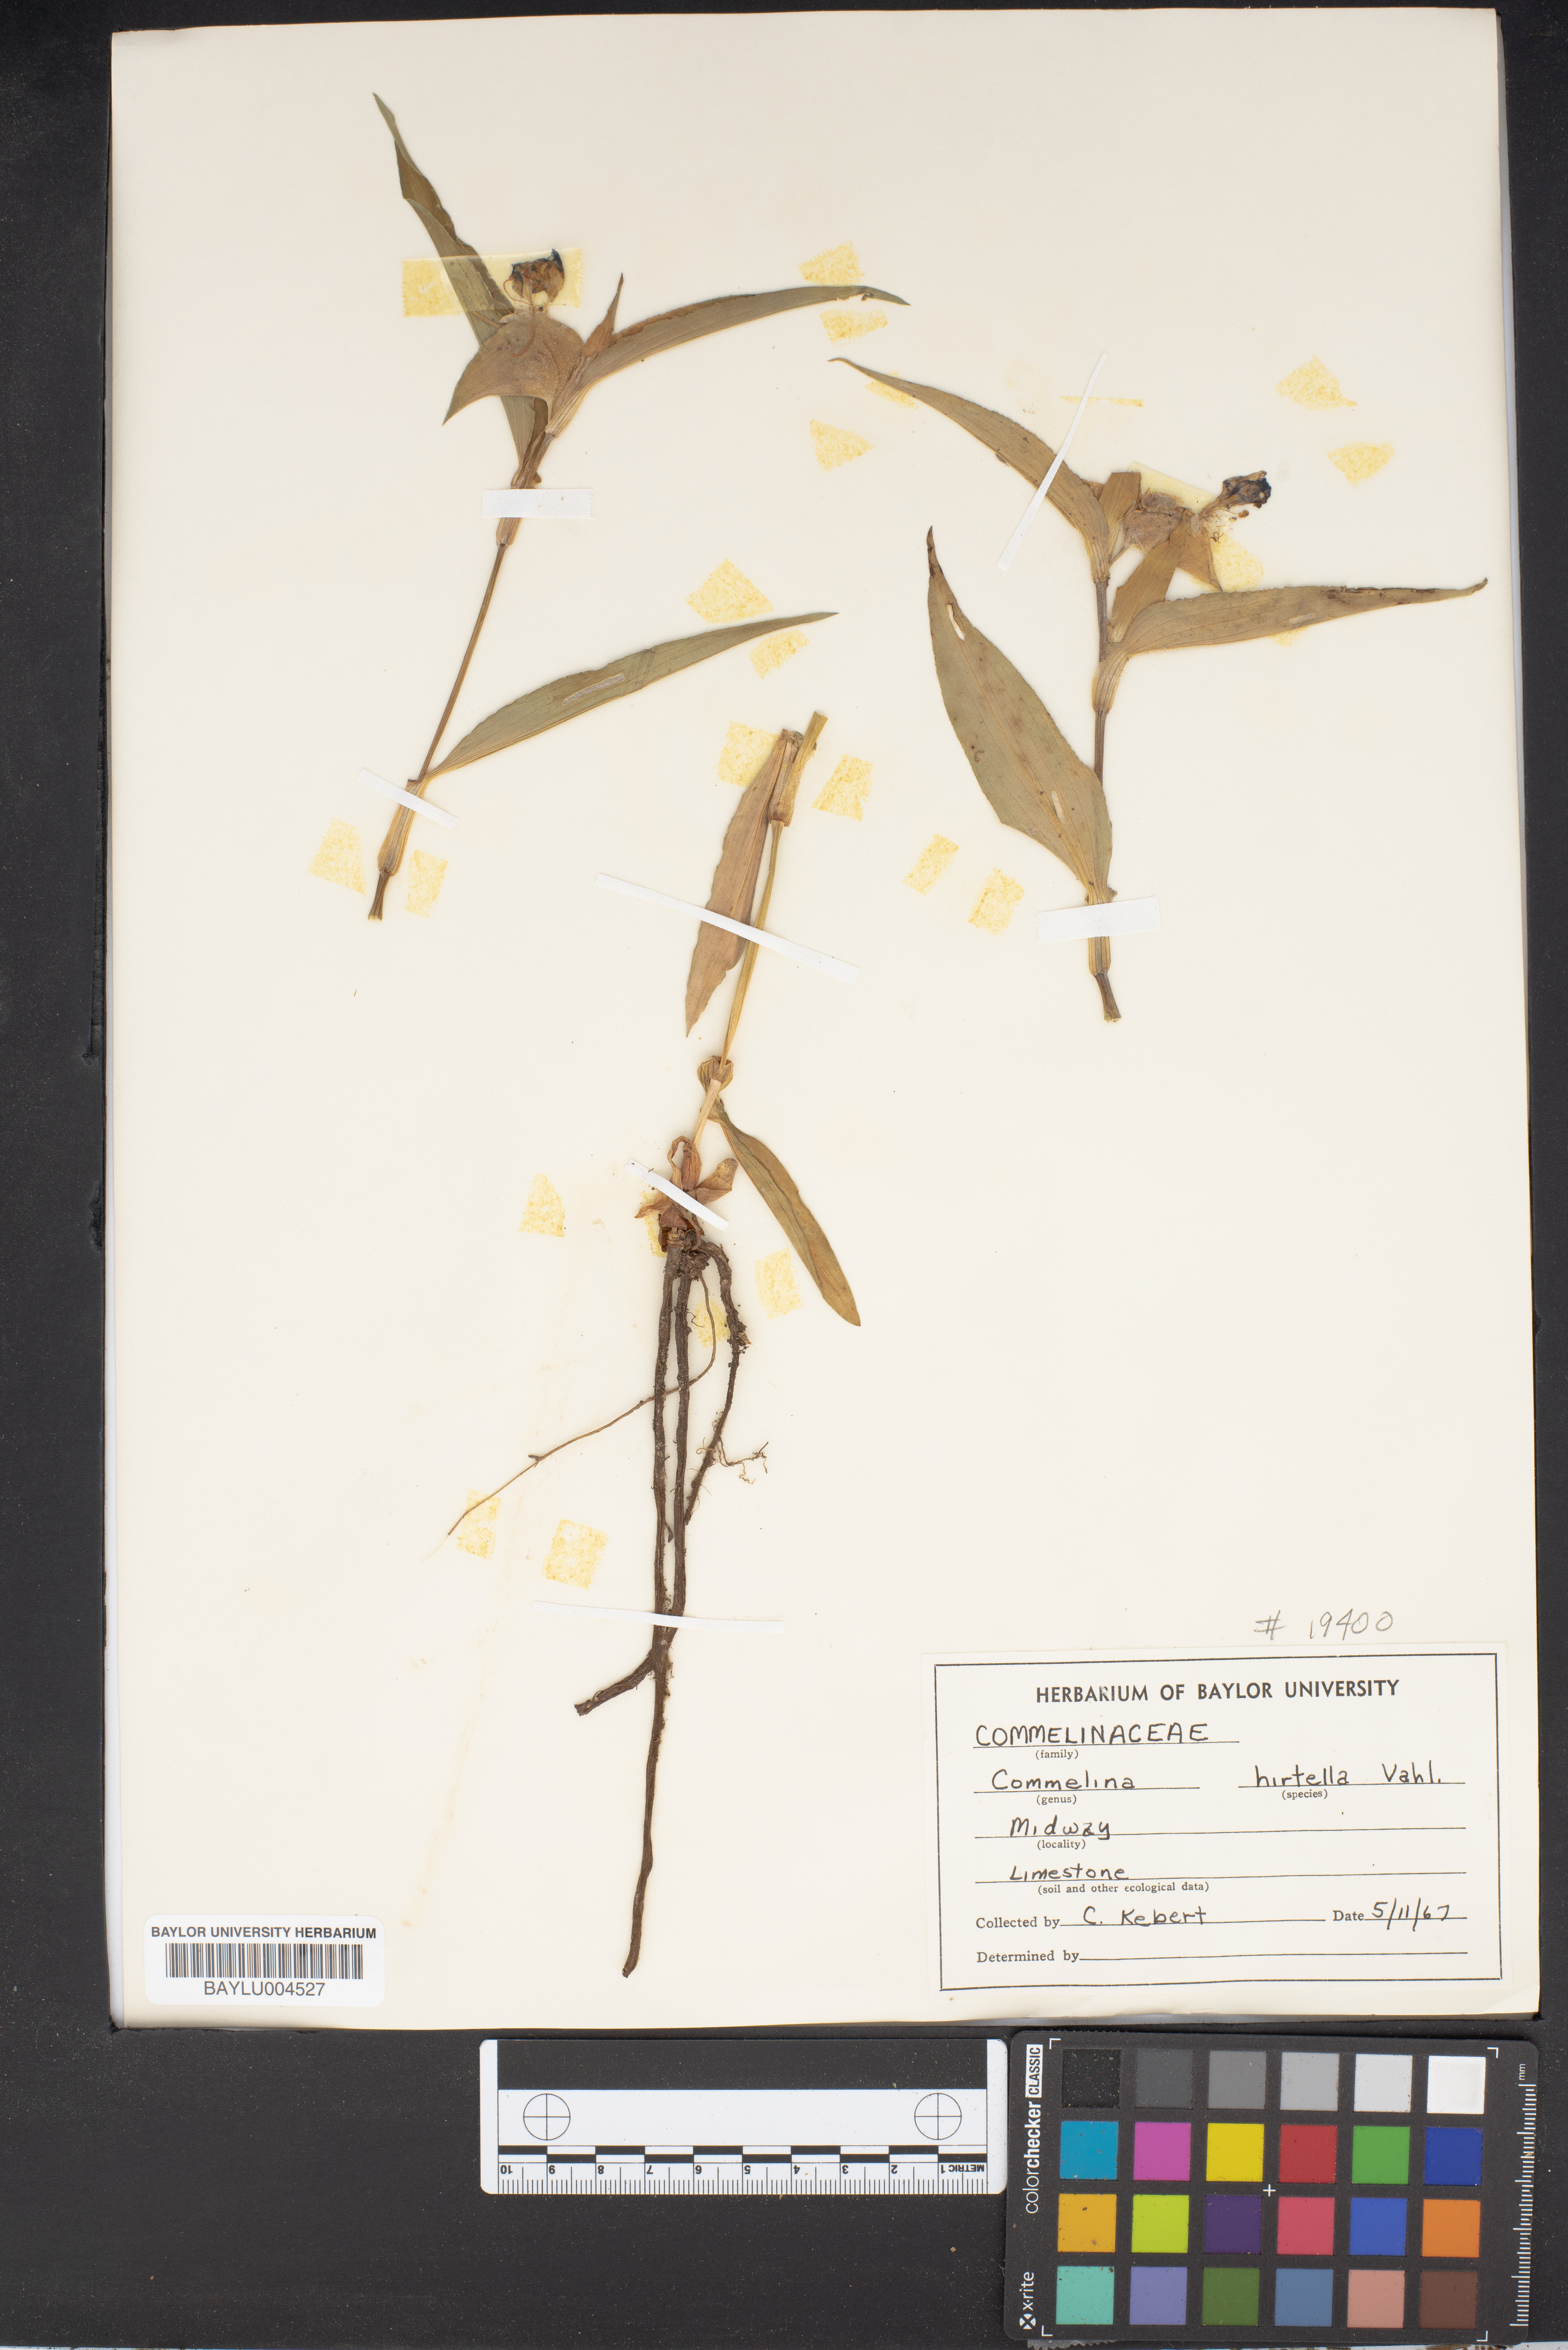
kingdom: Plantae
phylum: Tracheophyta
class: Liliopsida
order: Commelinales
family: Commelinaceae
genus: Commelina
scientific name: Commelina virginica
